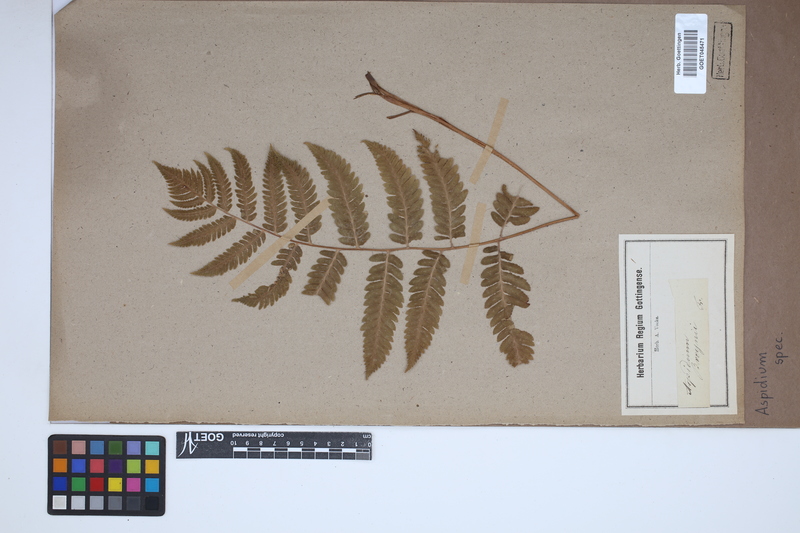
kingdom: Plantae
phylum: Tracheophyta
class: Polypodiopsida
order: Polypodiales
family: Tectariaceae
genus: Tectaria
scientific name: Tectaria Aspidium spec
